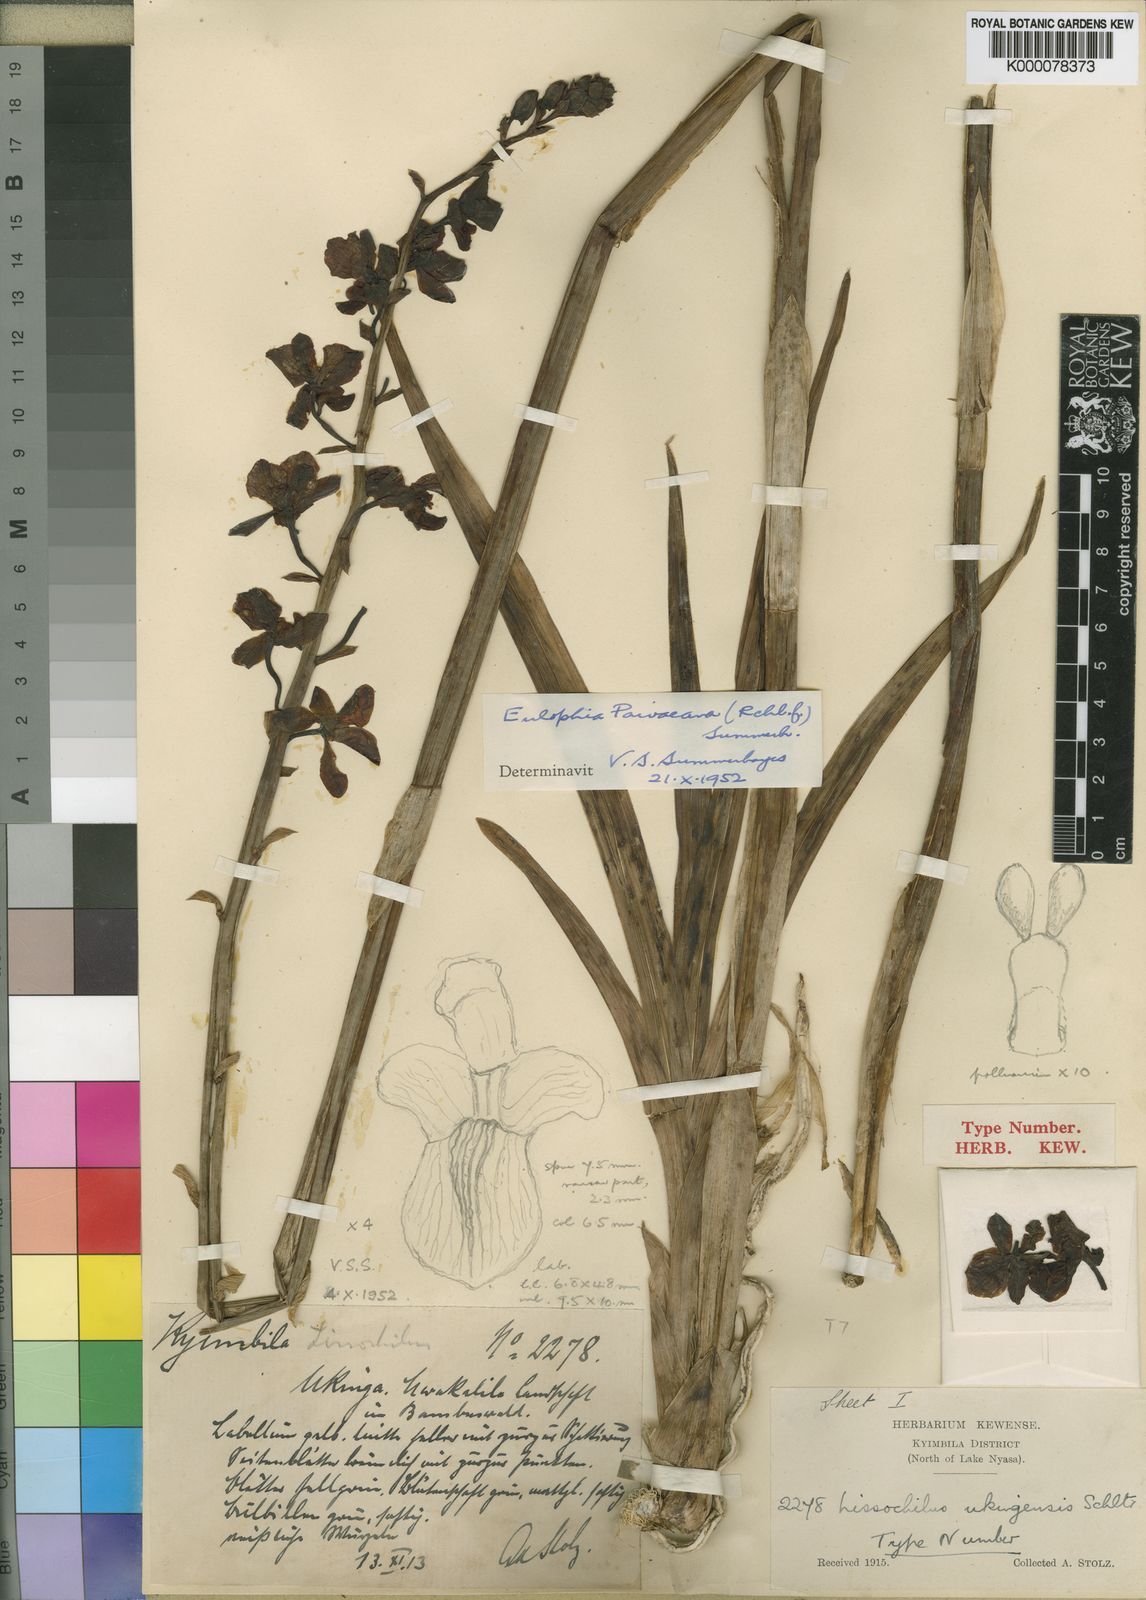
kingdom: Plantae
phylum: Tracheophyta
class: Liliopsida
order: Asparagales
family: Orchidaceae
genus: Eulophia
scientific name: Eulophia streptopetala
